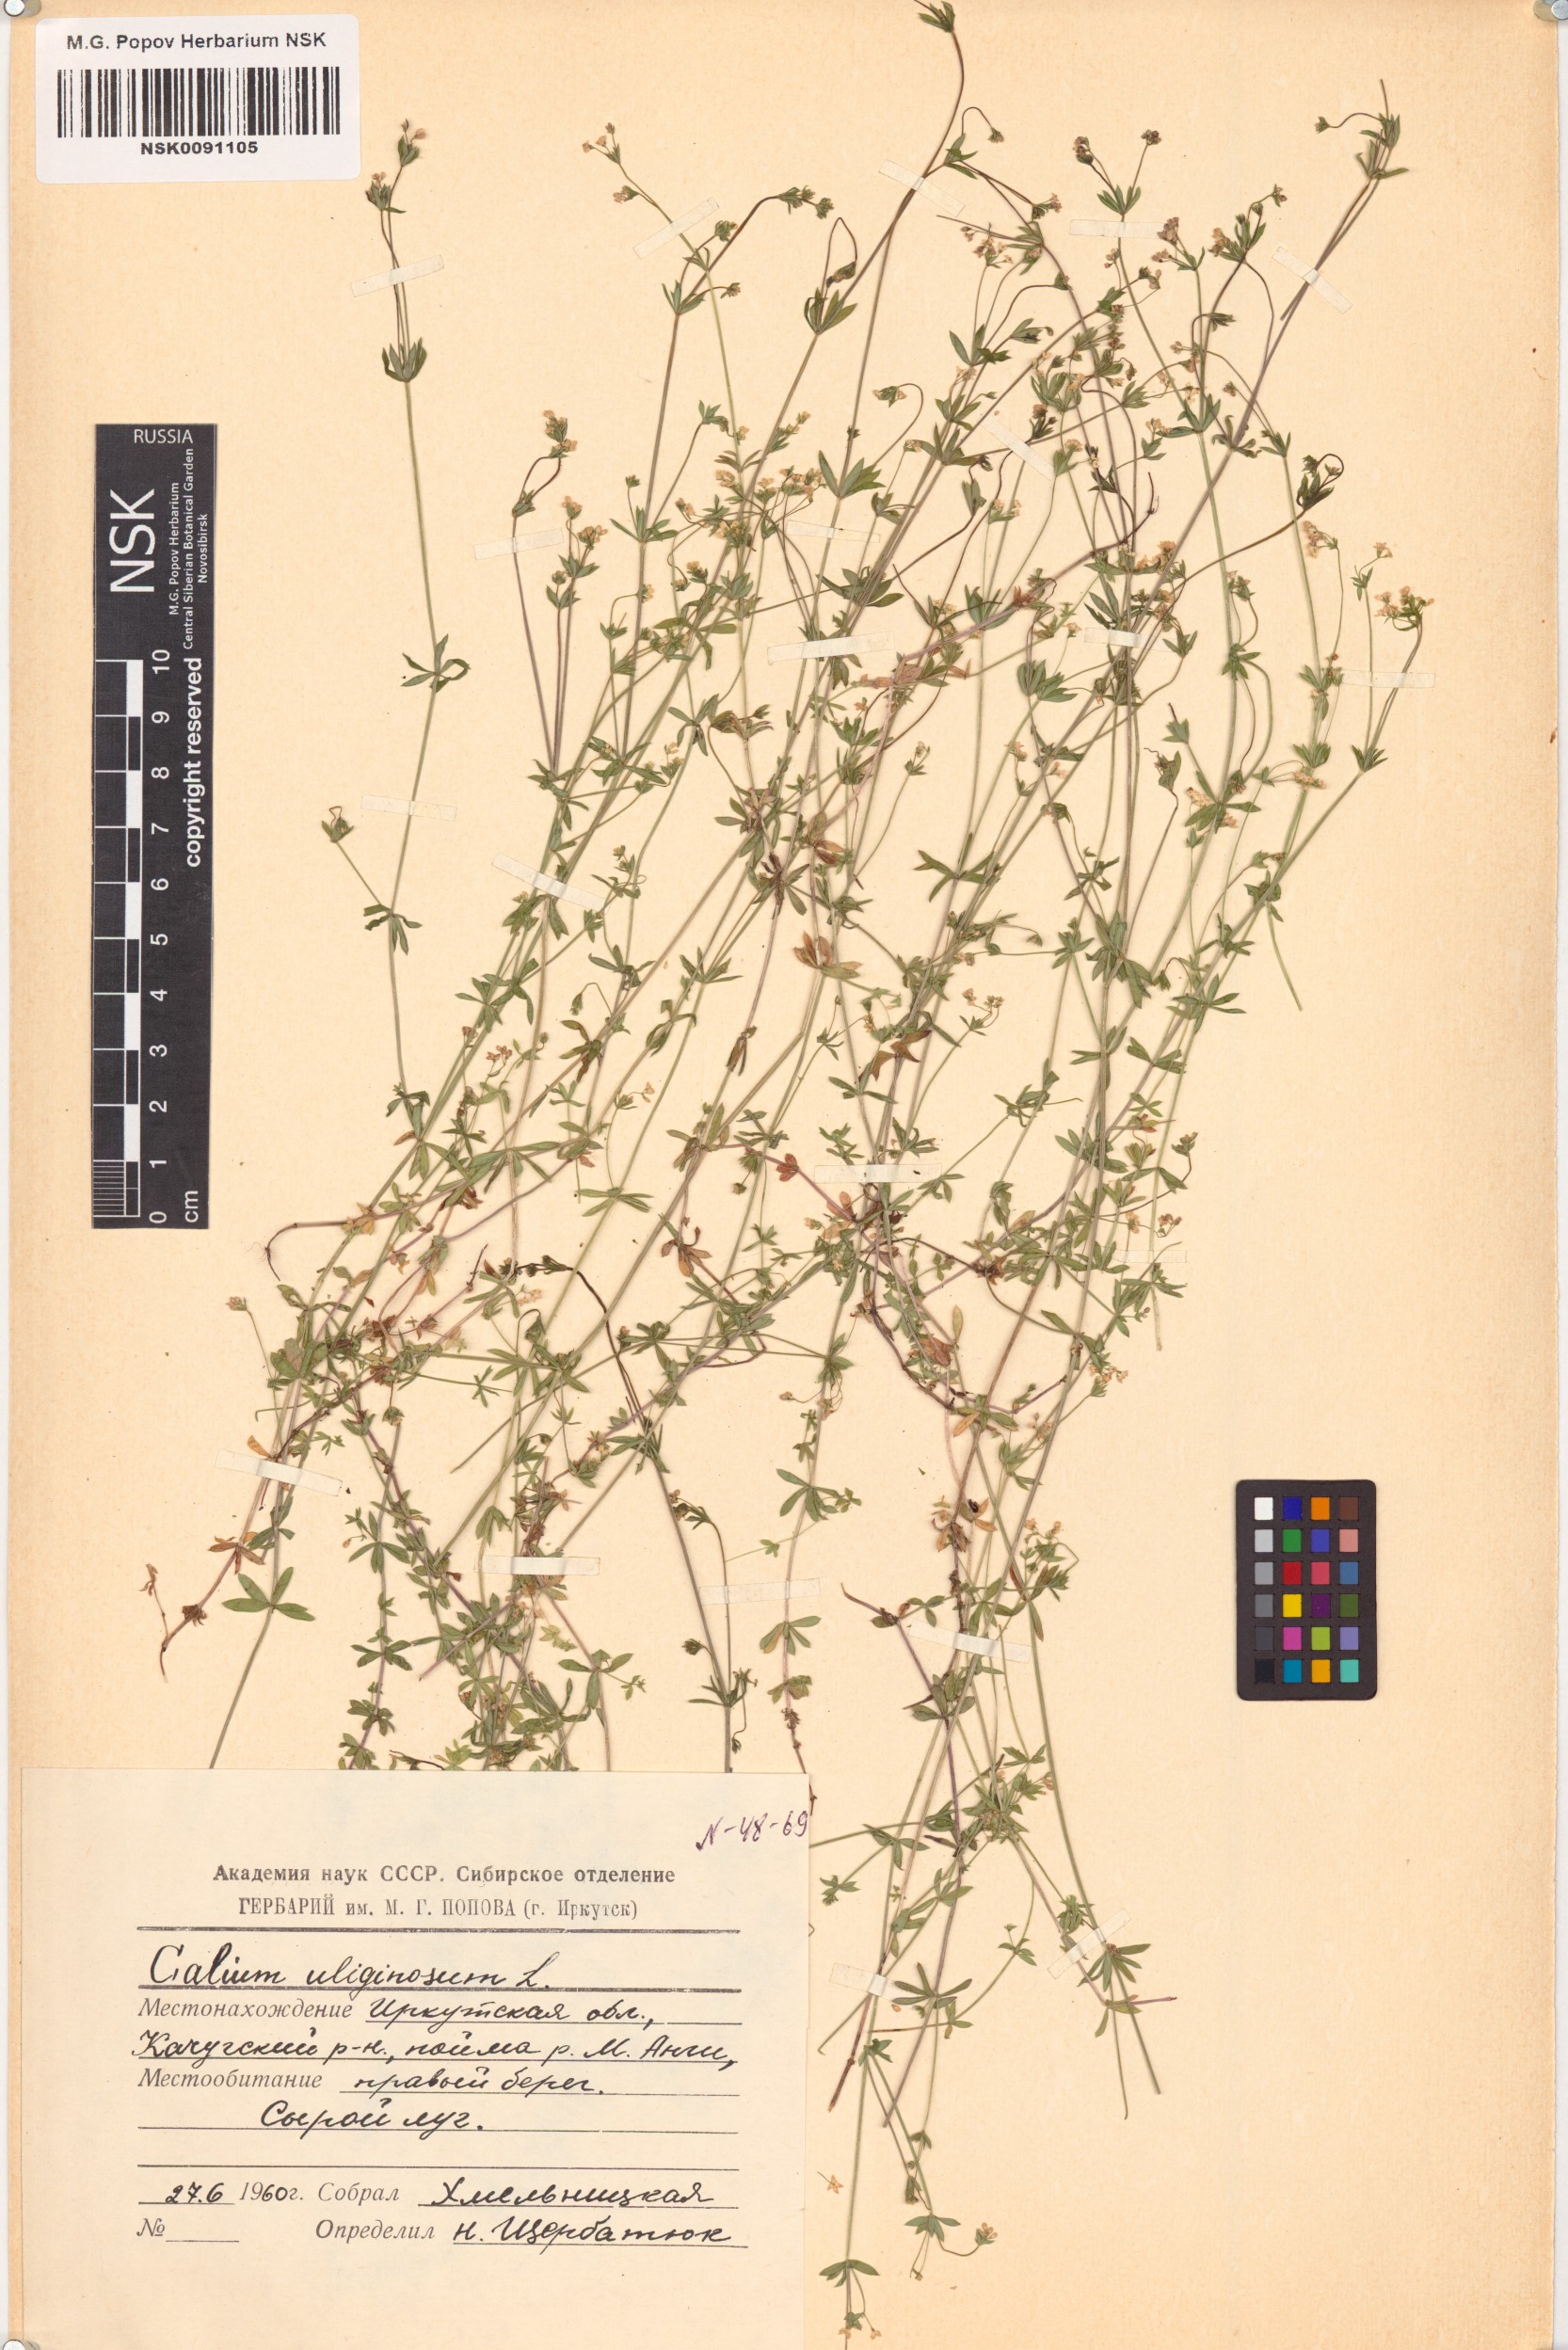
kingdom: Plantae
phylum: Tracheophyta
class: Magnoliopsida
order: Gentianales
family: Rubiaceae
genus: Galium
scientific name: Galium uliginosum
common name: Fen bedstraw
